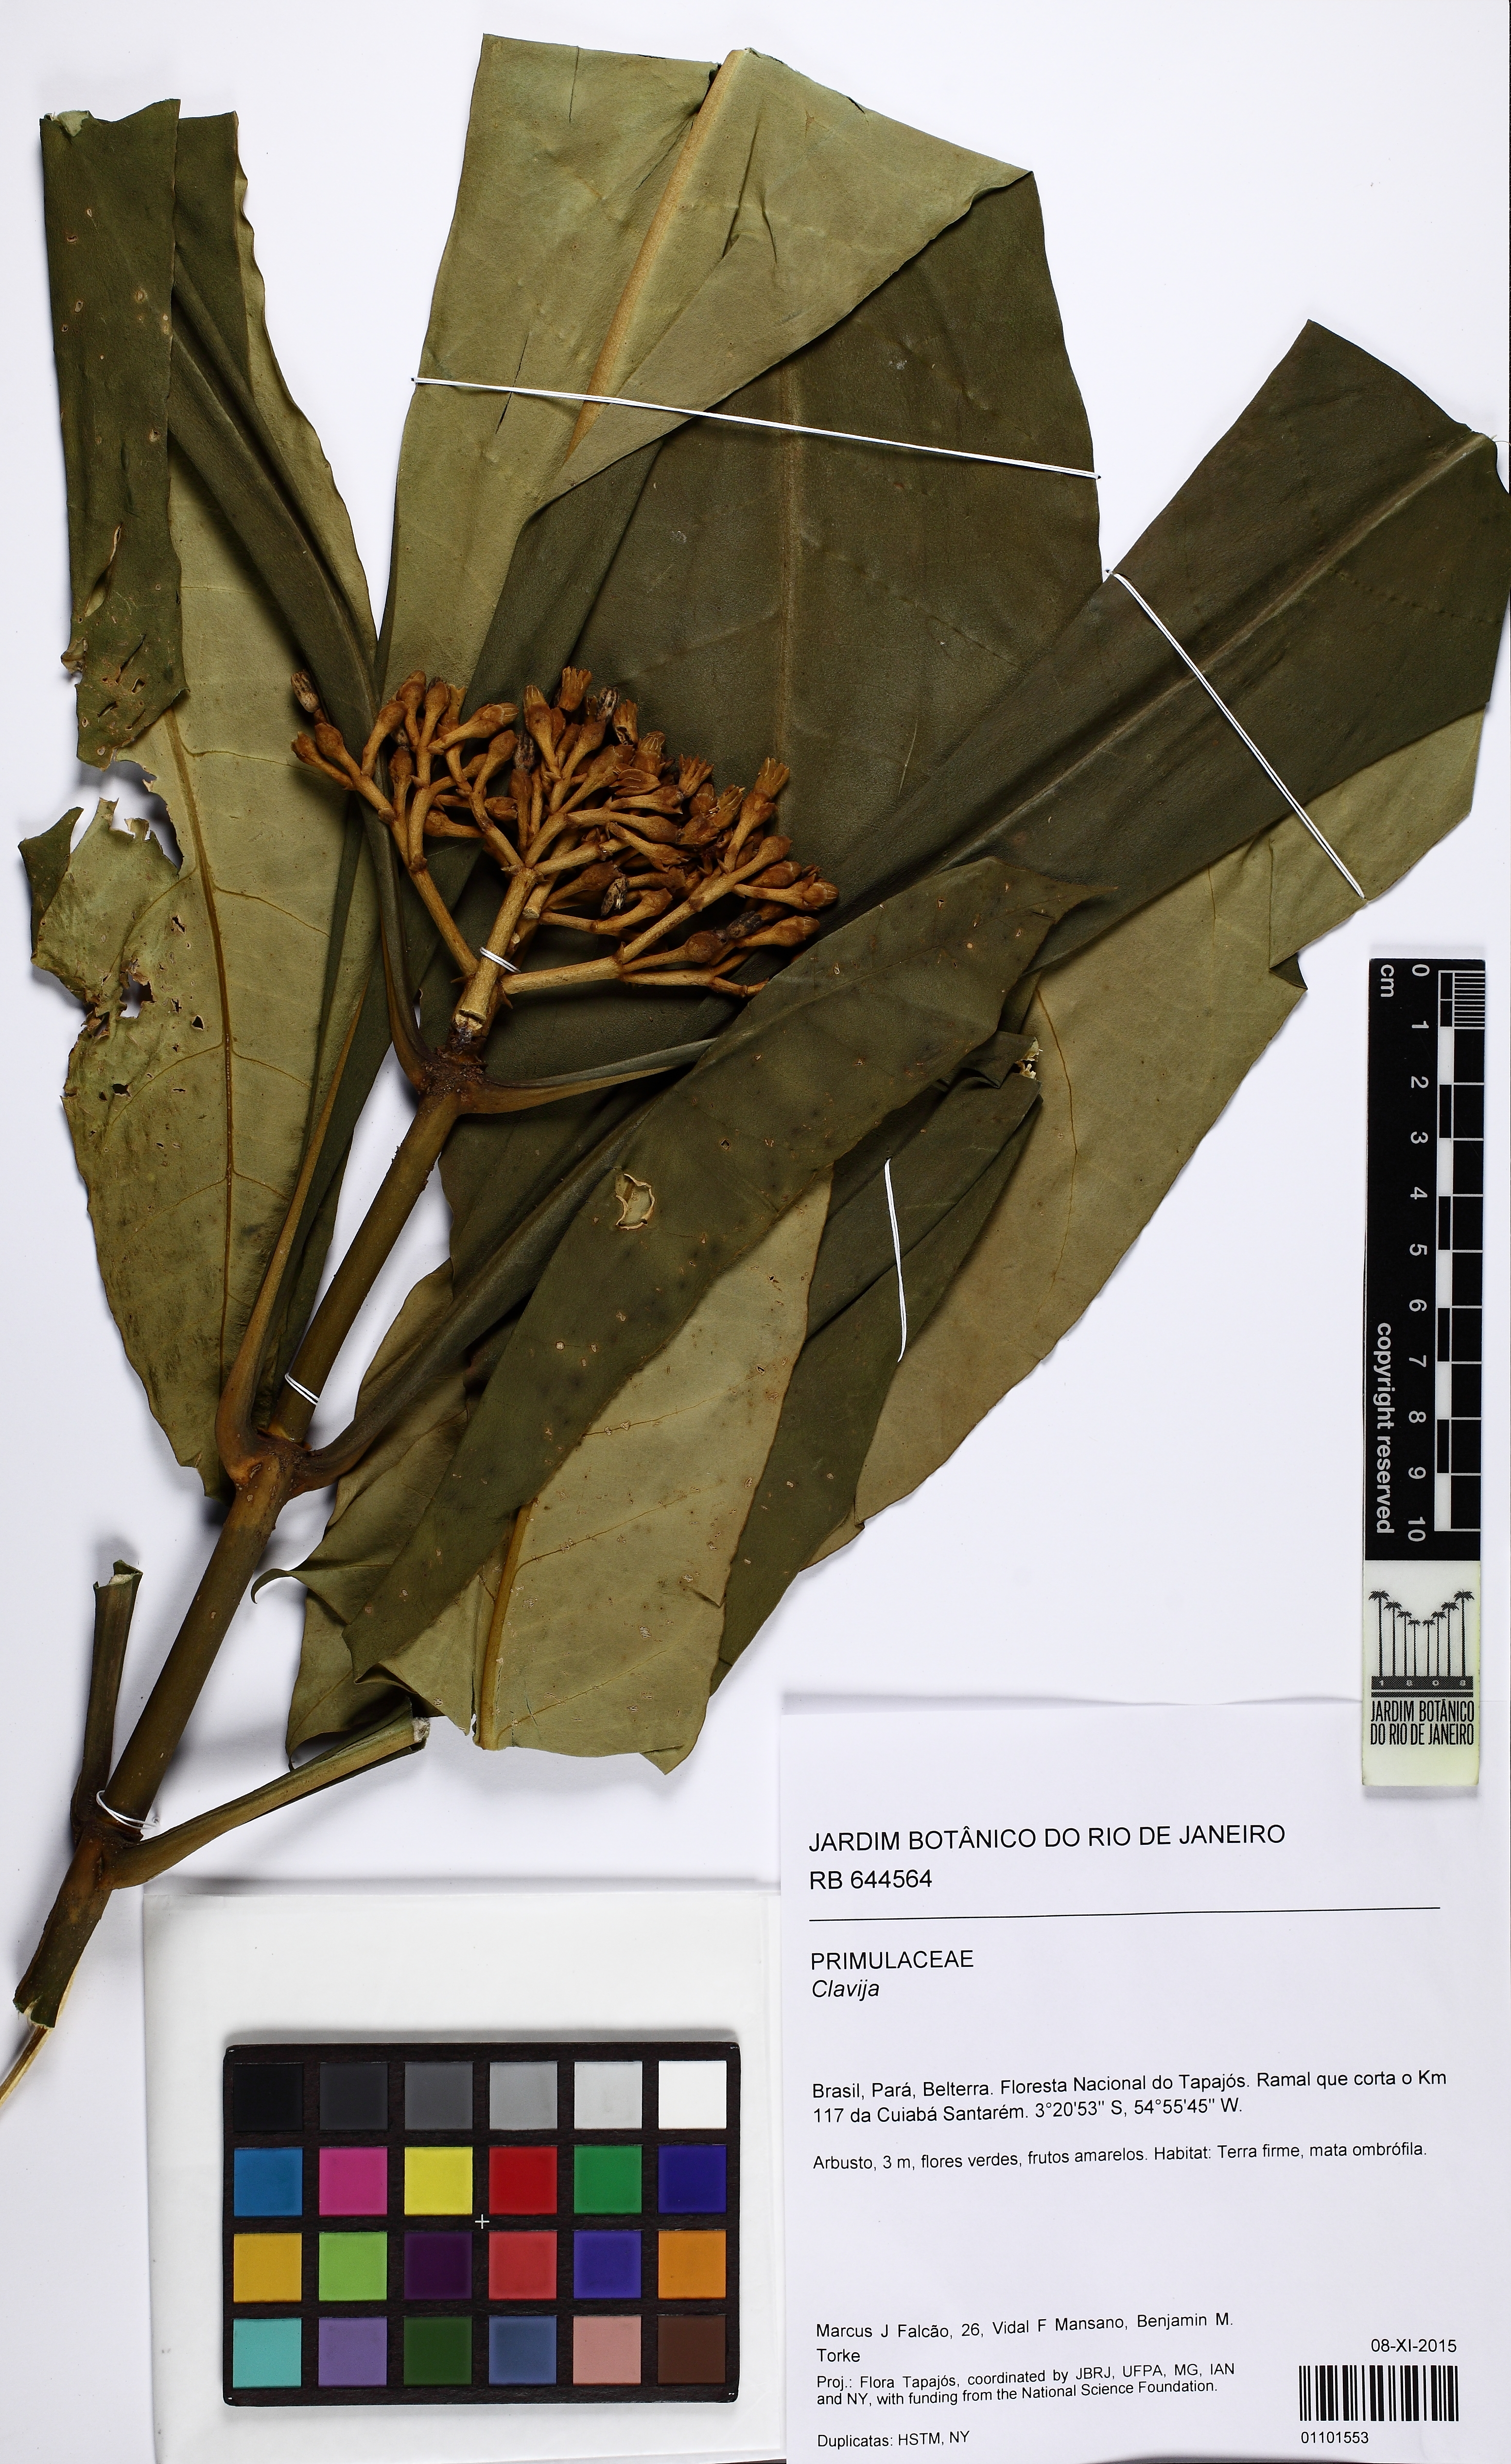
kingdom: Plantae
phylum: Tracheophyta
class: Magnoliopsida
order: Ericales
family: Primulaceae
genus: Clavija
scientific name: Clavija
